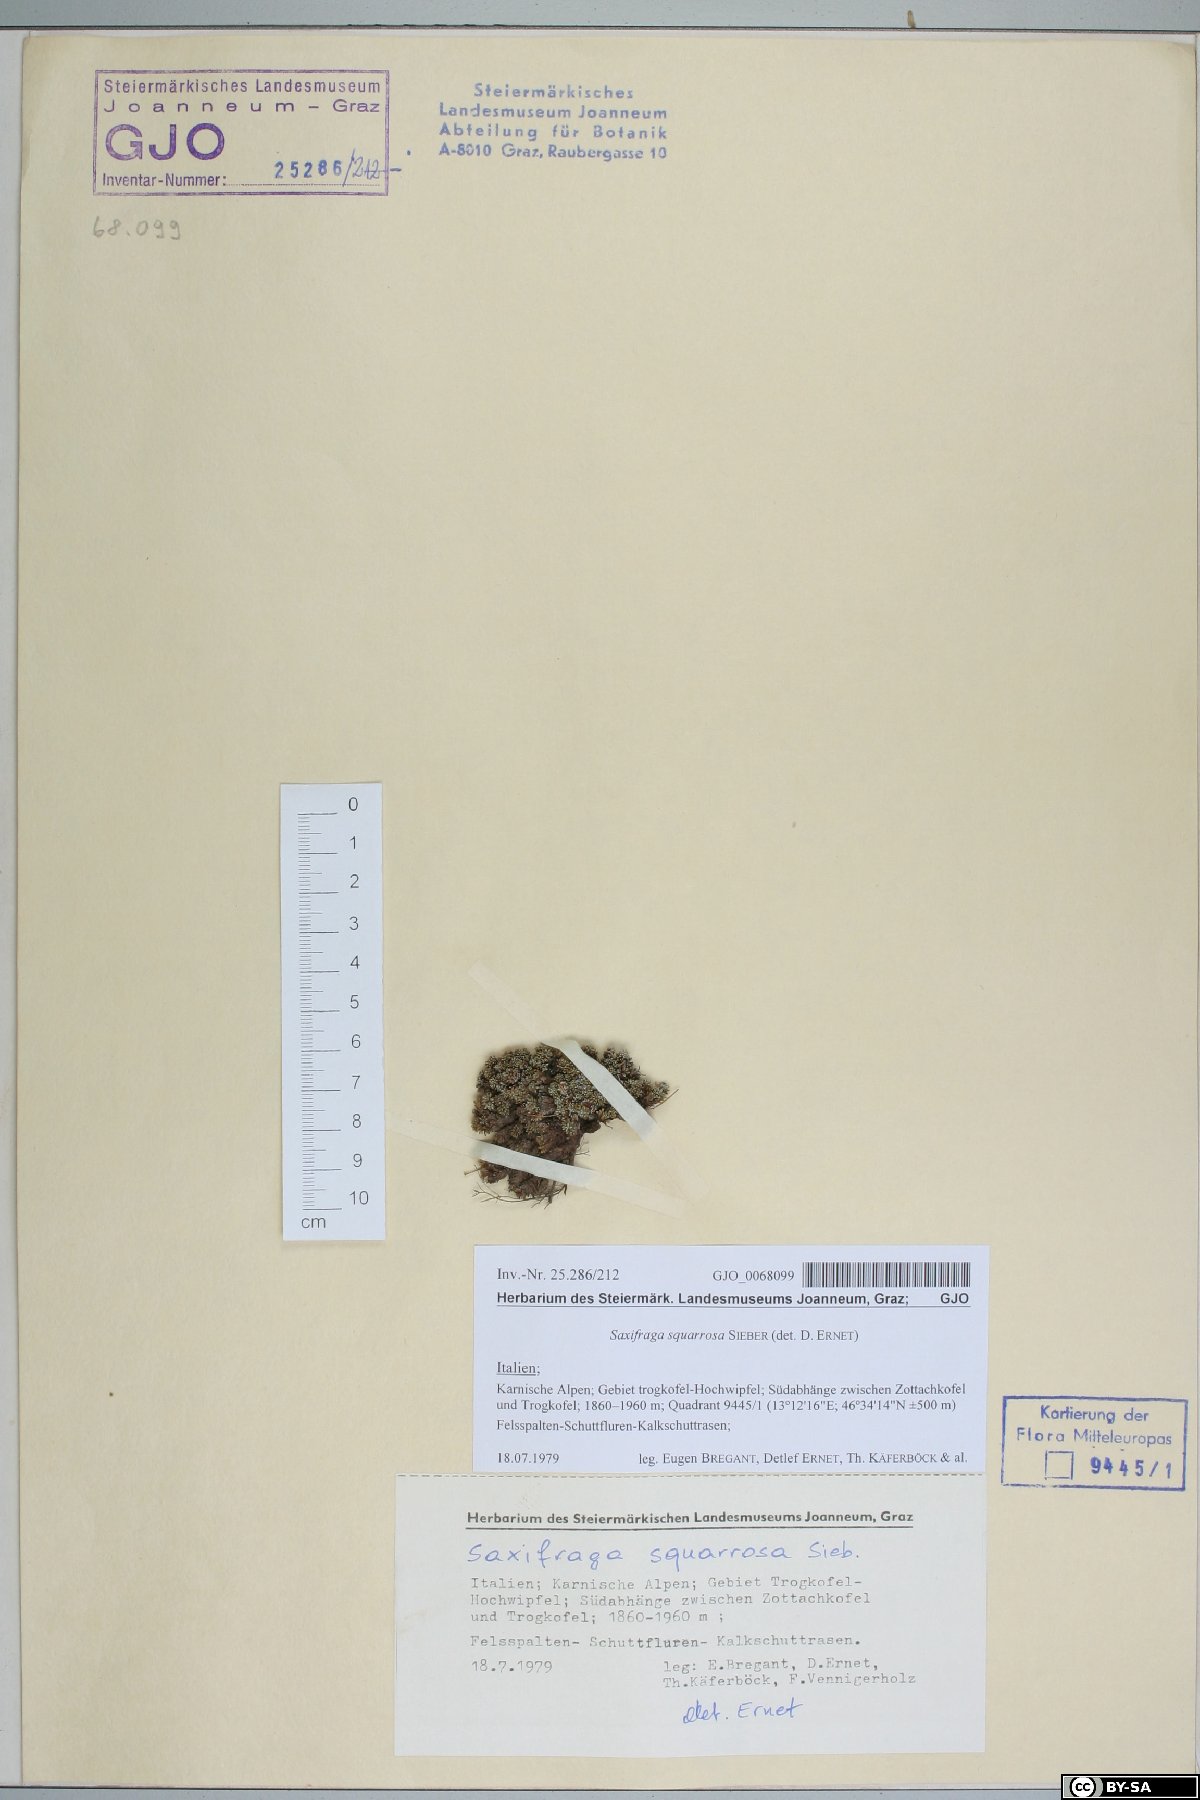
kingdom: Plantae
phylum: Tracheophyta
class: Magnoliopsida
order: Saxifragales
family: Saxifragaceae
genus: Saxifraga
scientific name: Saxifraga squarrosa
